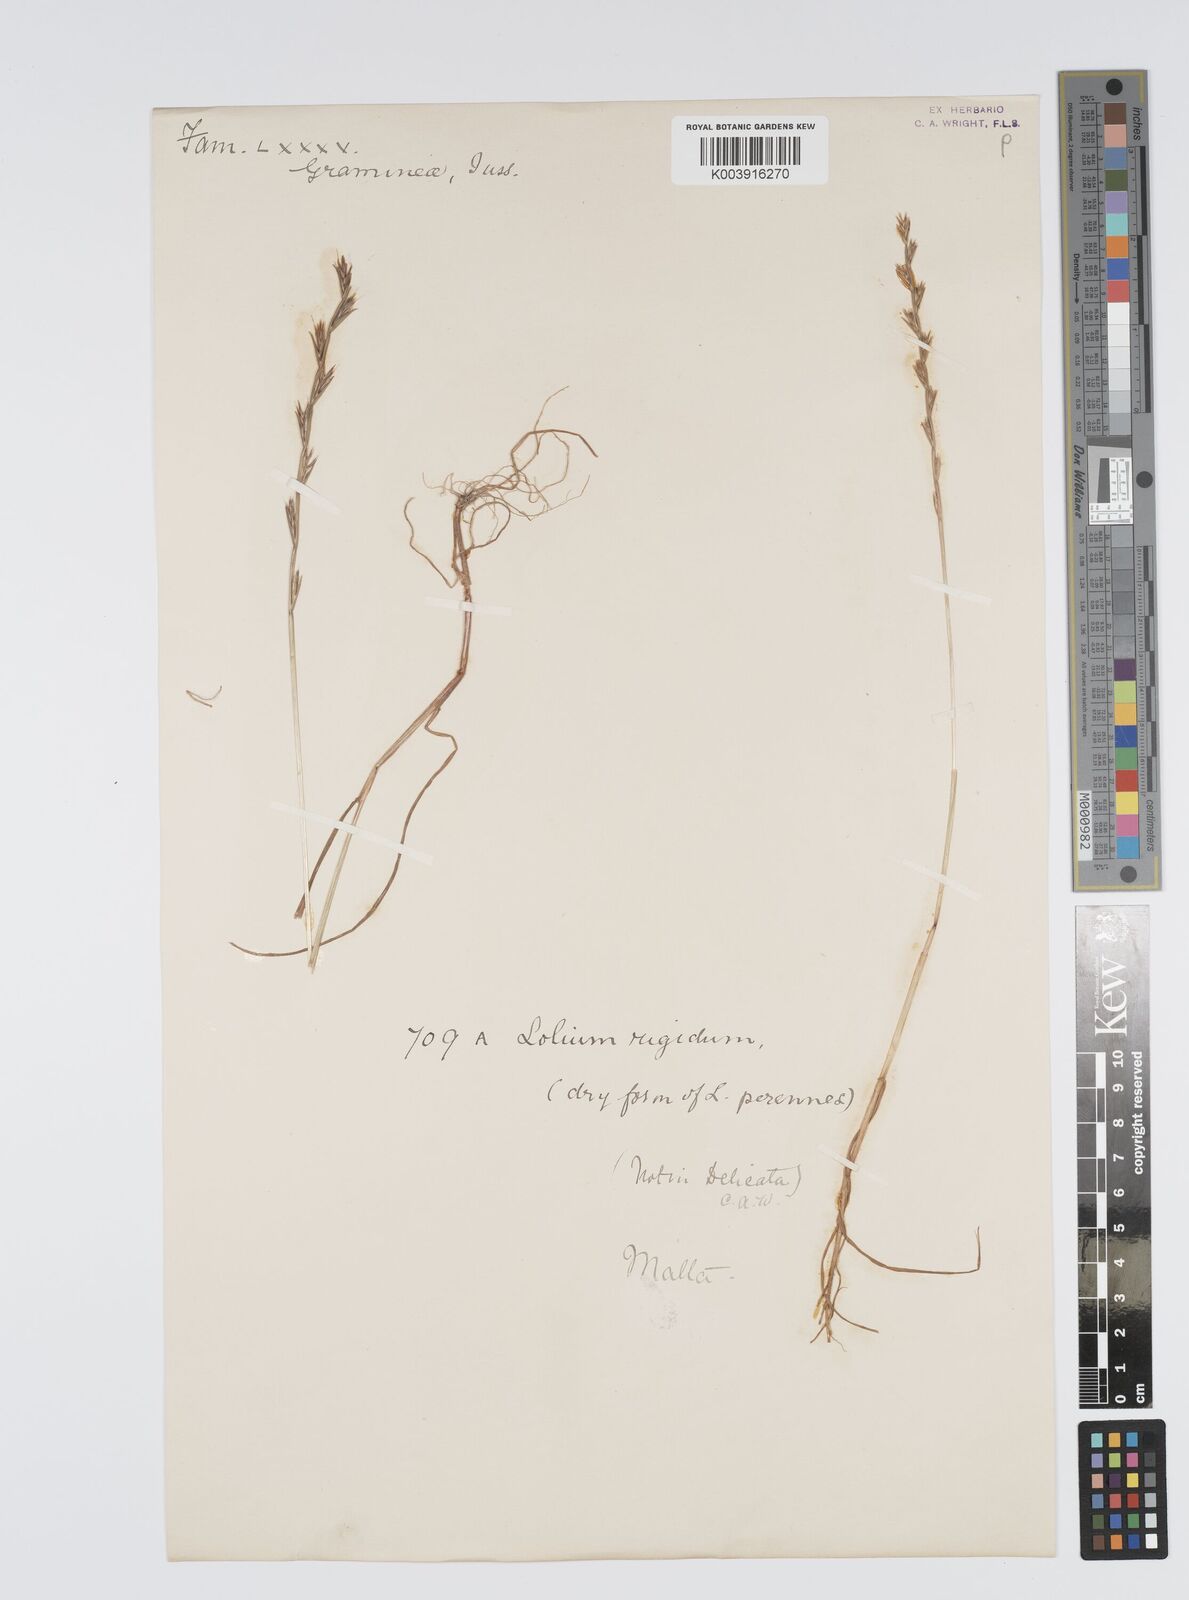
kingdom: Plantae
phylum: Tracheophyta
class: Liliopsida
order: Poales
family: Poaceae
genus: Lolium
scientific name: Lolium rigidum
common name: Wimmera ryegrass
